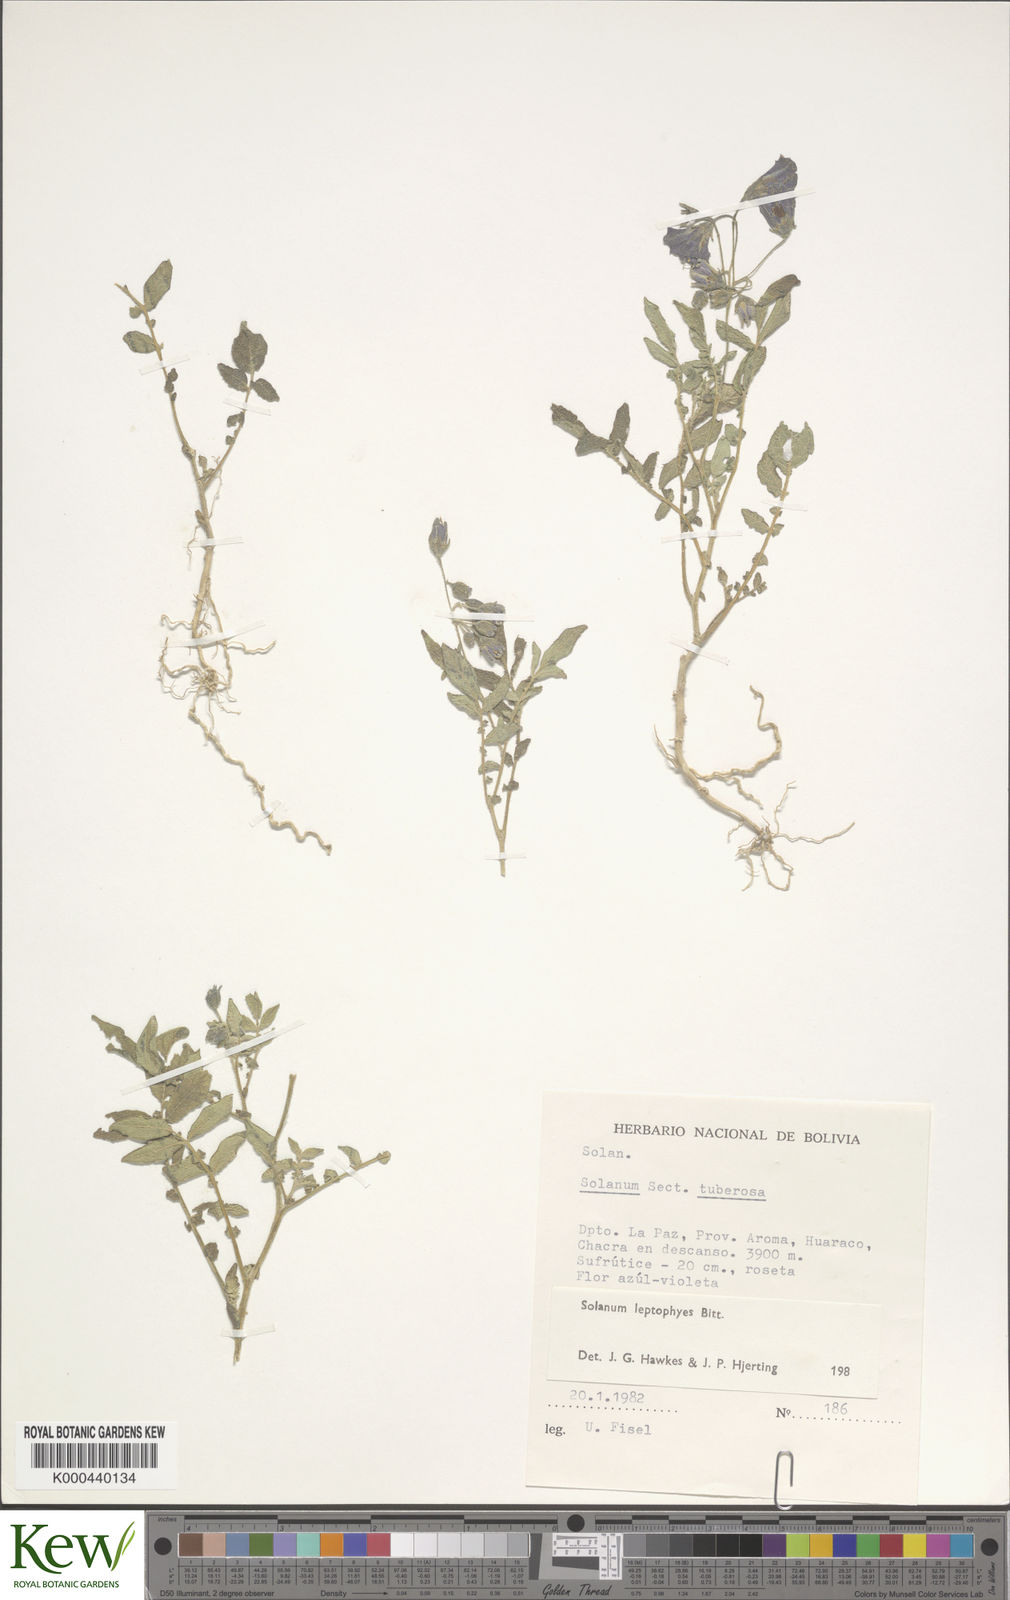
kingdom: Plantae
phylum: Tracheophyta
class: Magnoliopsida
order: Solanales
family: Solanaceae
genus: Solanum
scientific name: Solanum brevicaule
